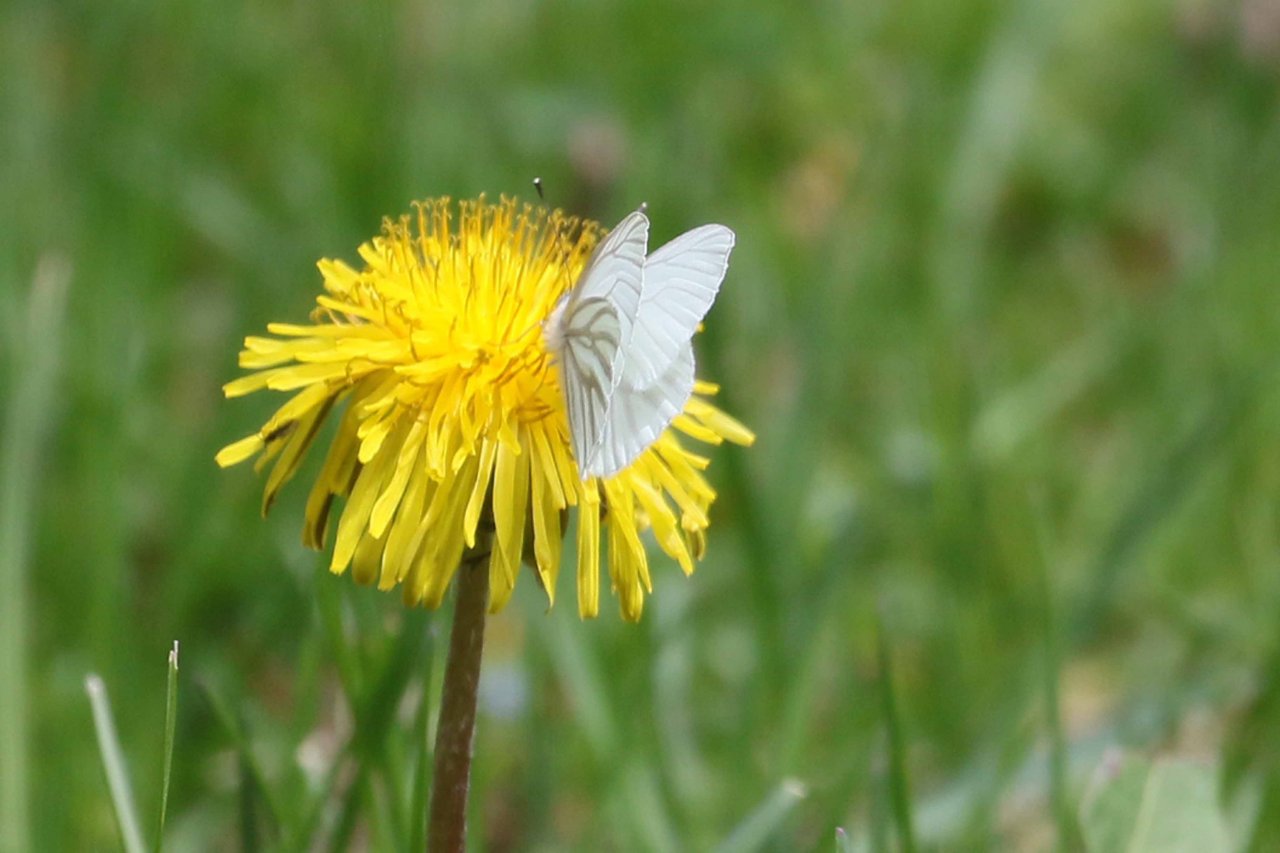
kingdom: Animalia
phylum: Arthropoda
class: Insecta
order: Lepidoptera
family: Pieridae
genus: Pieris
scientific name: Pieris oleracea
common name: Mustard White
